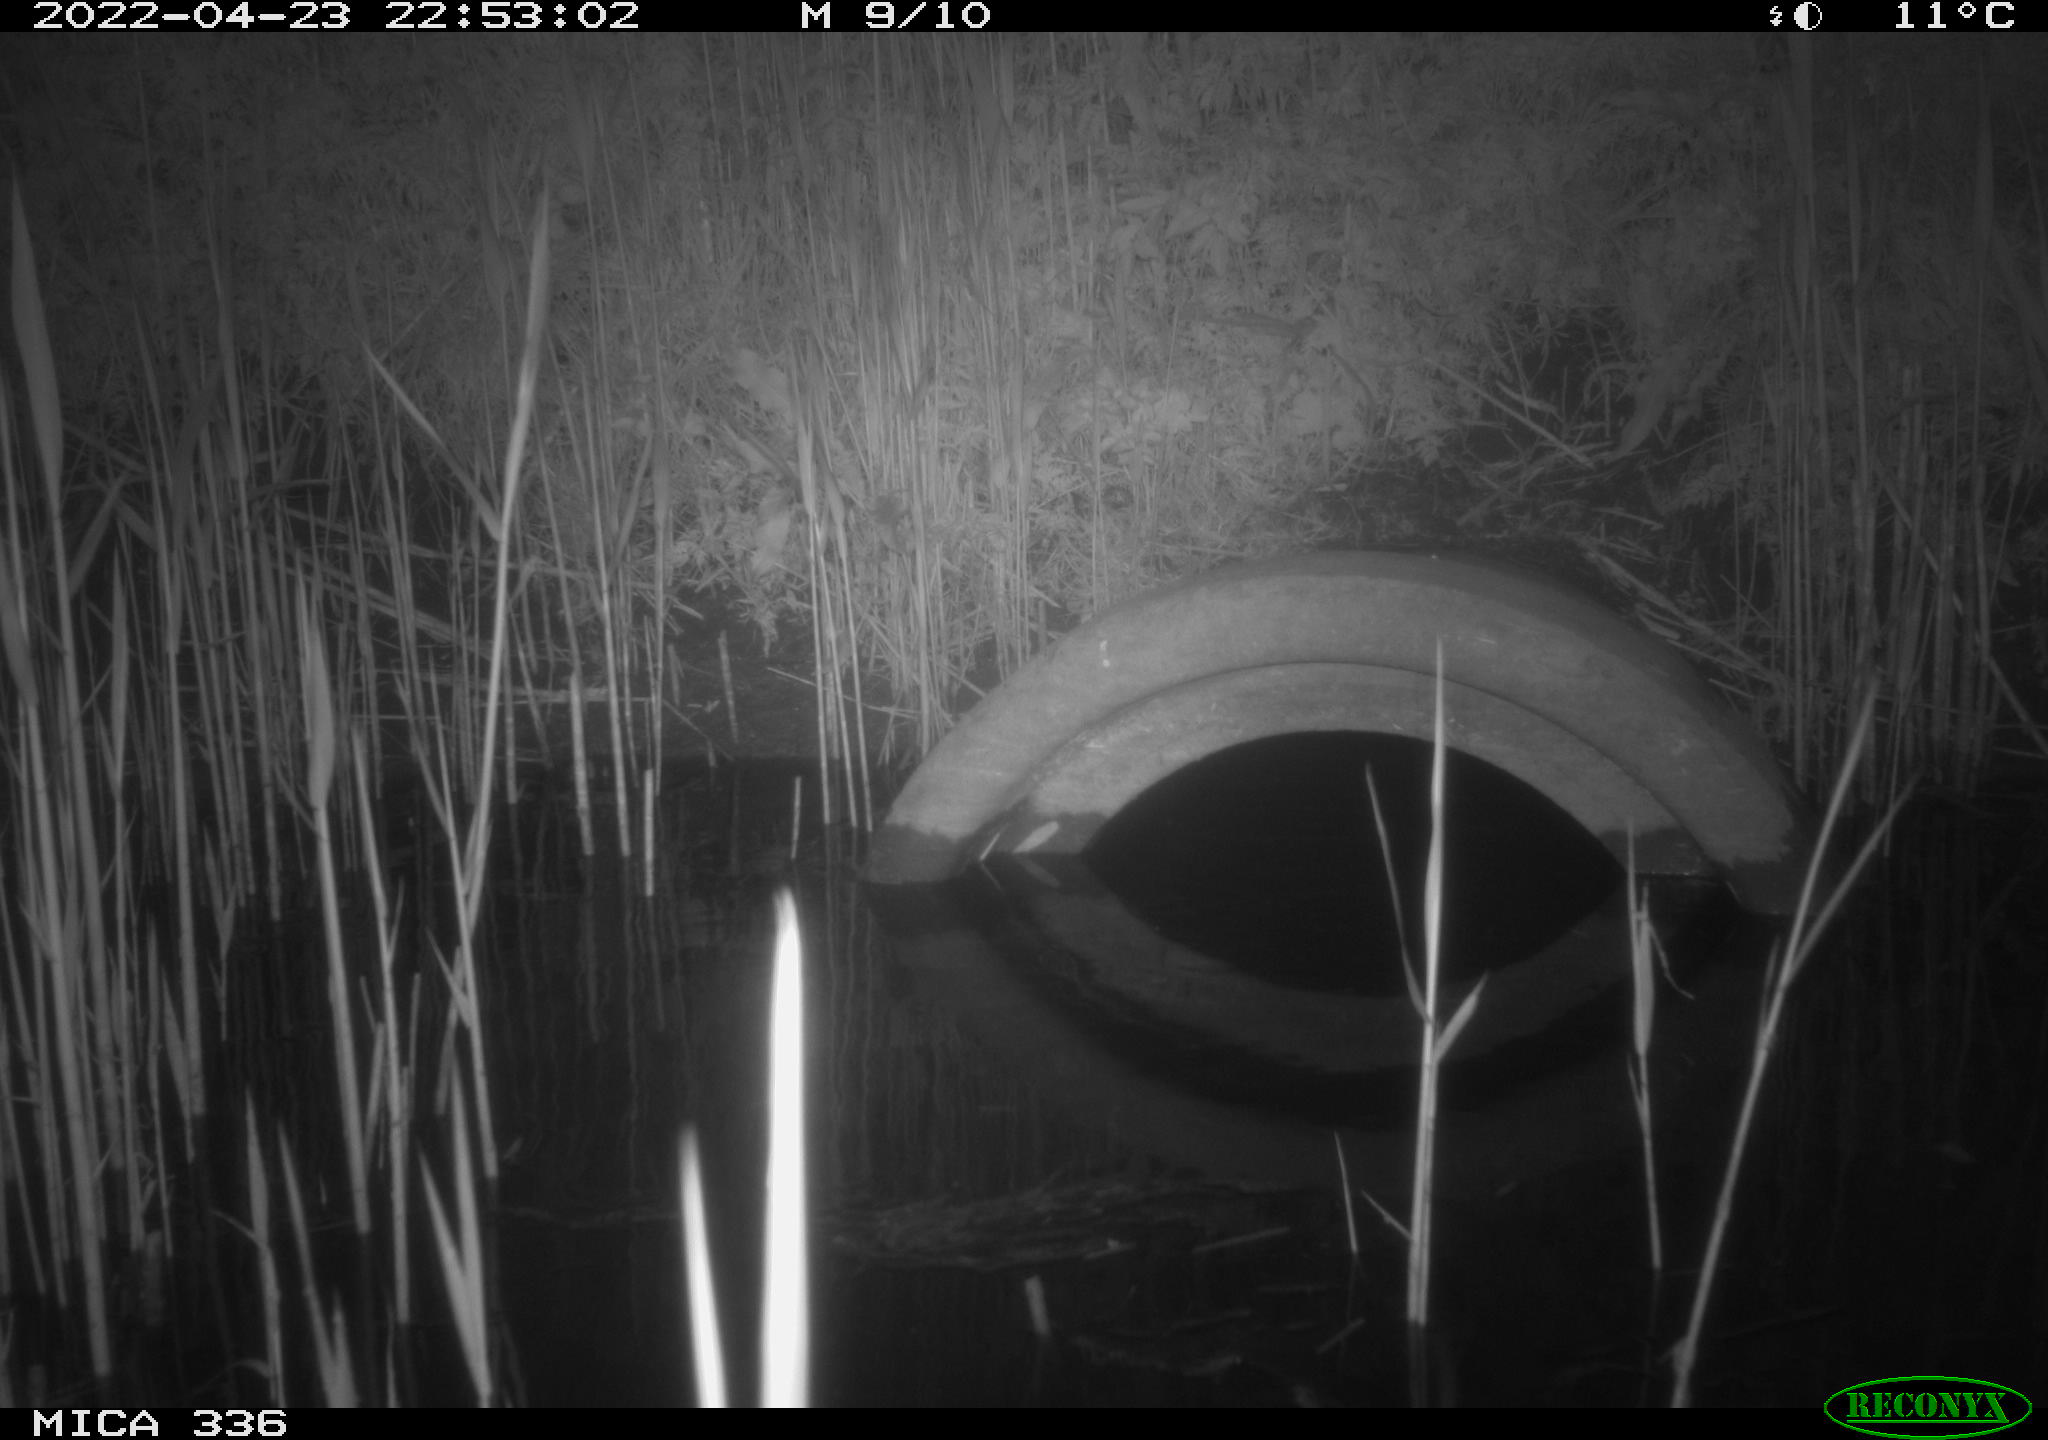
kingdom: Animalia
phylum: Chordata
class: Mammalia
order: Rodentia
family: Muridae
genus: Rattus
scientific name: Rattus norvegicus
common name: Brown rat
